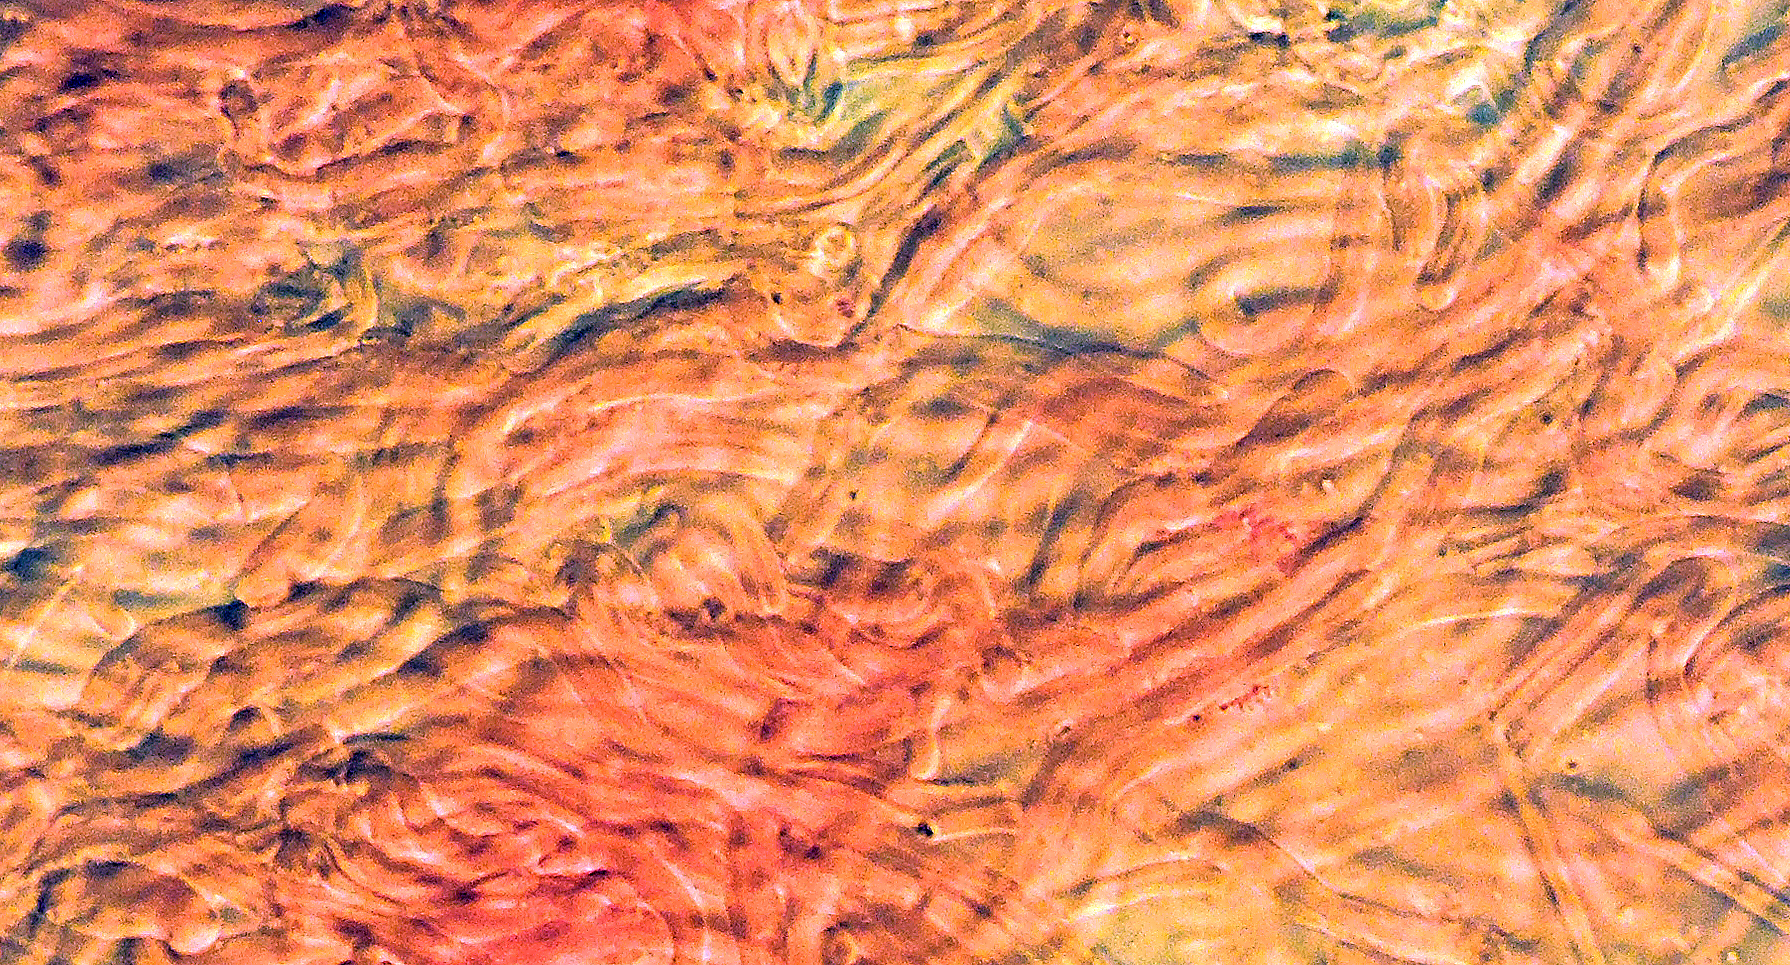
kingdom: Fungi
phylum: Basidiomycota
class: Dacrymycetes
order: Dacrymycetales
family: Dacrymycetaceae
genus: Dacrymyces
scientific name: Dacrymyces capitatus
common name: stilket tåresvamp
